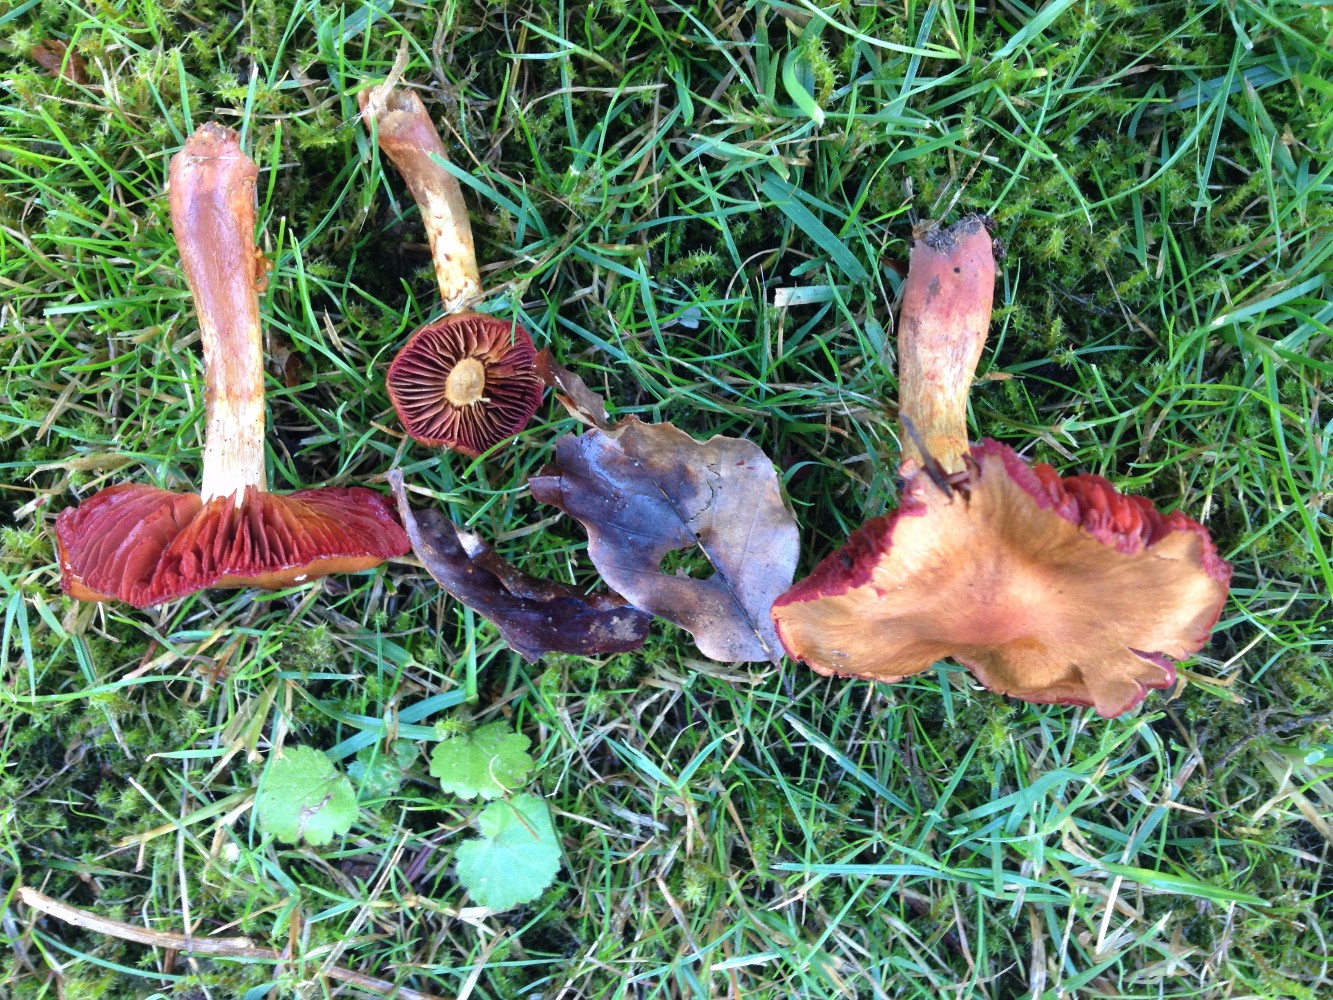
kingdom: Fungi
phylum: Basidiomycota
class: Agaricomycetes
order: Agaricales
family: Cortinariaceae
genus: Cortinarius
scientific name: Cortinarius
